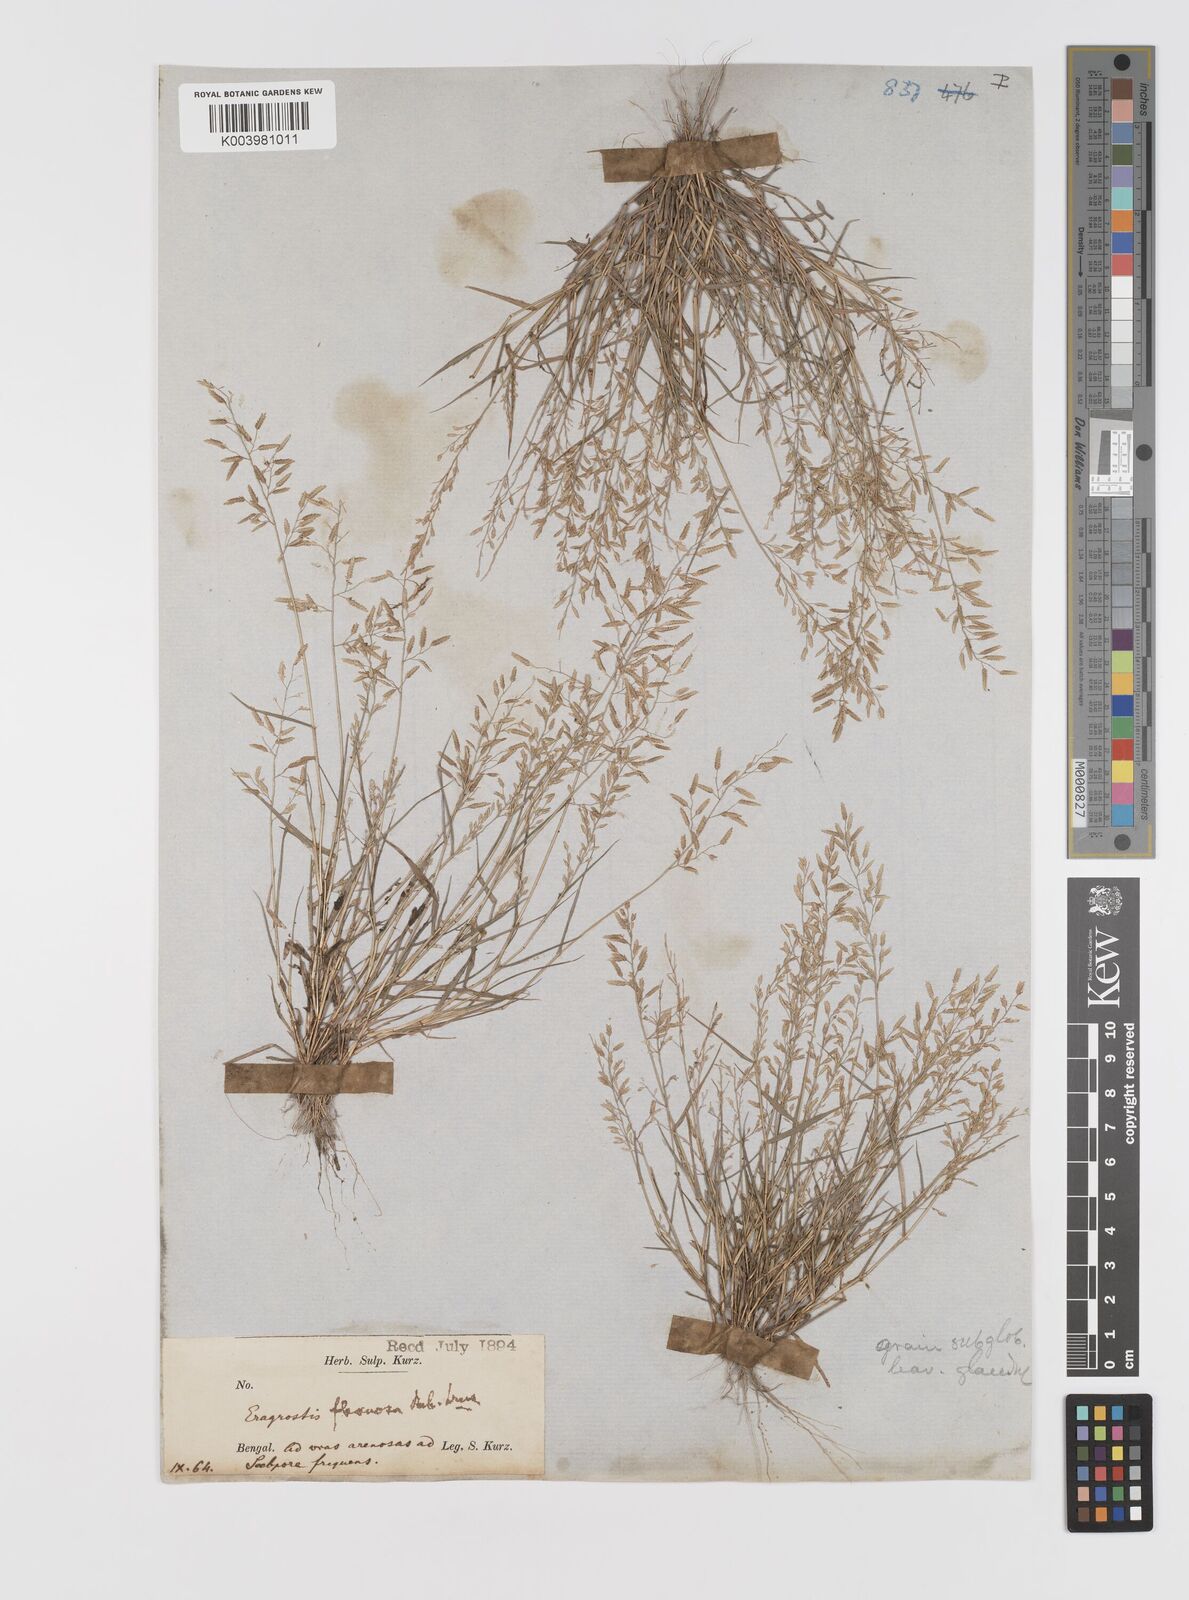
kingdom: Plantae
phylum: Tracheophyta
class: Liliopsida
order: Poales
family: Poaceae
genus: Eragrostis
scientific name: Eragrostis minor
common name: Small love-grass
